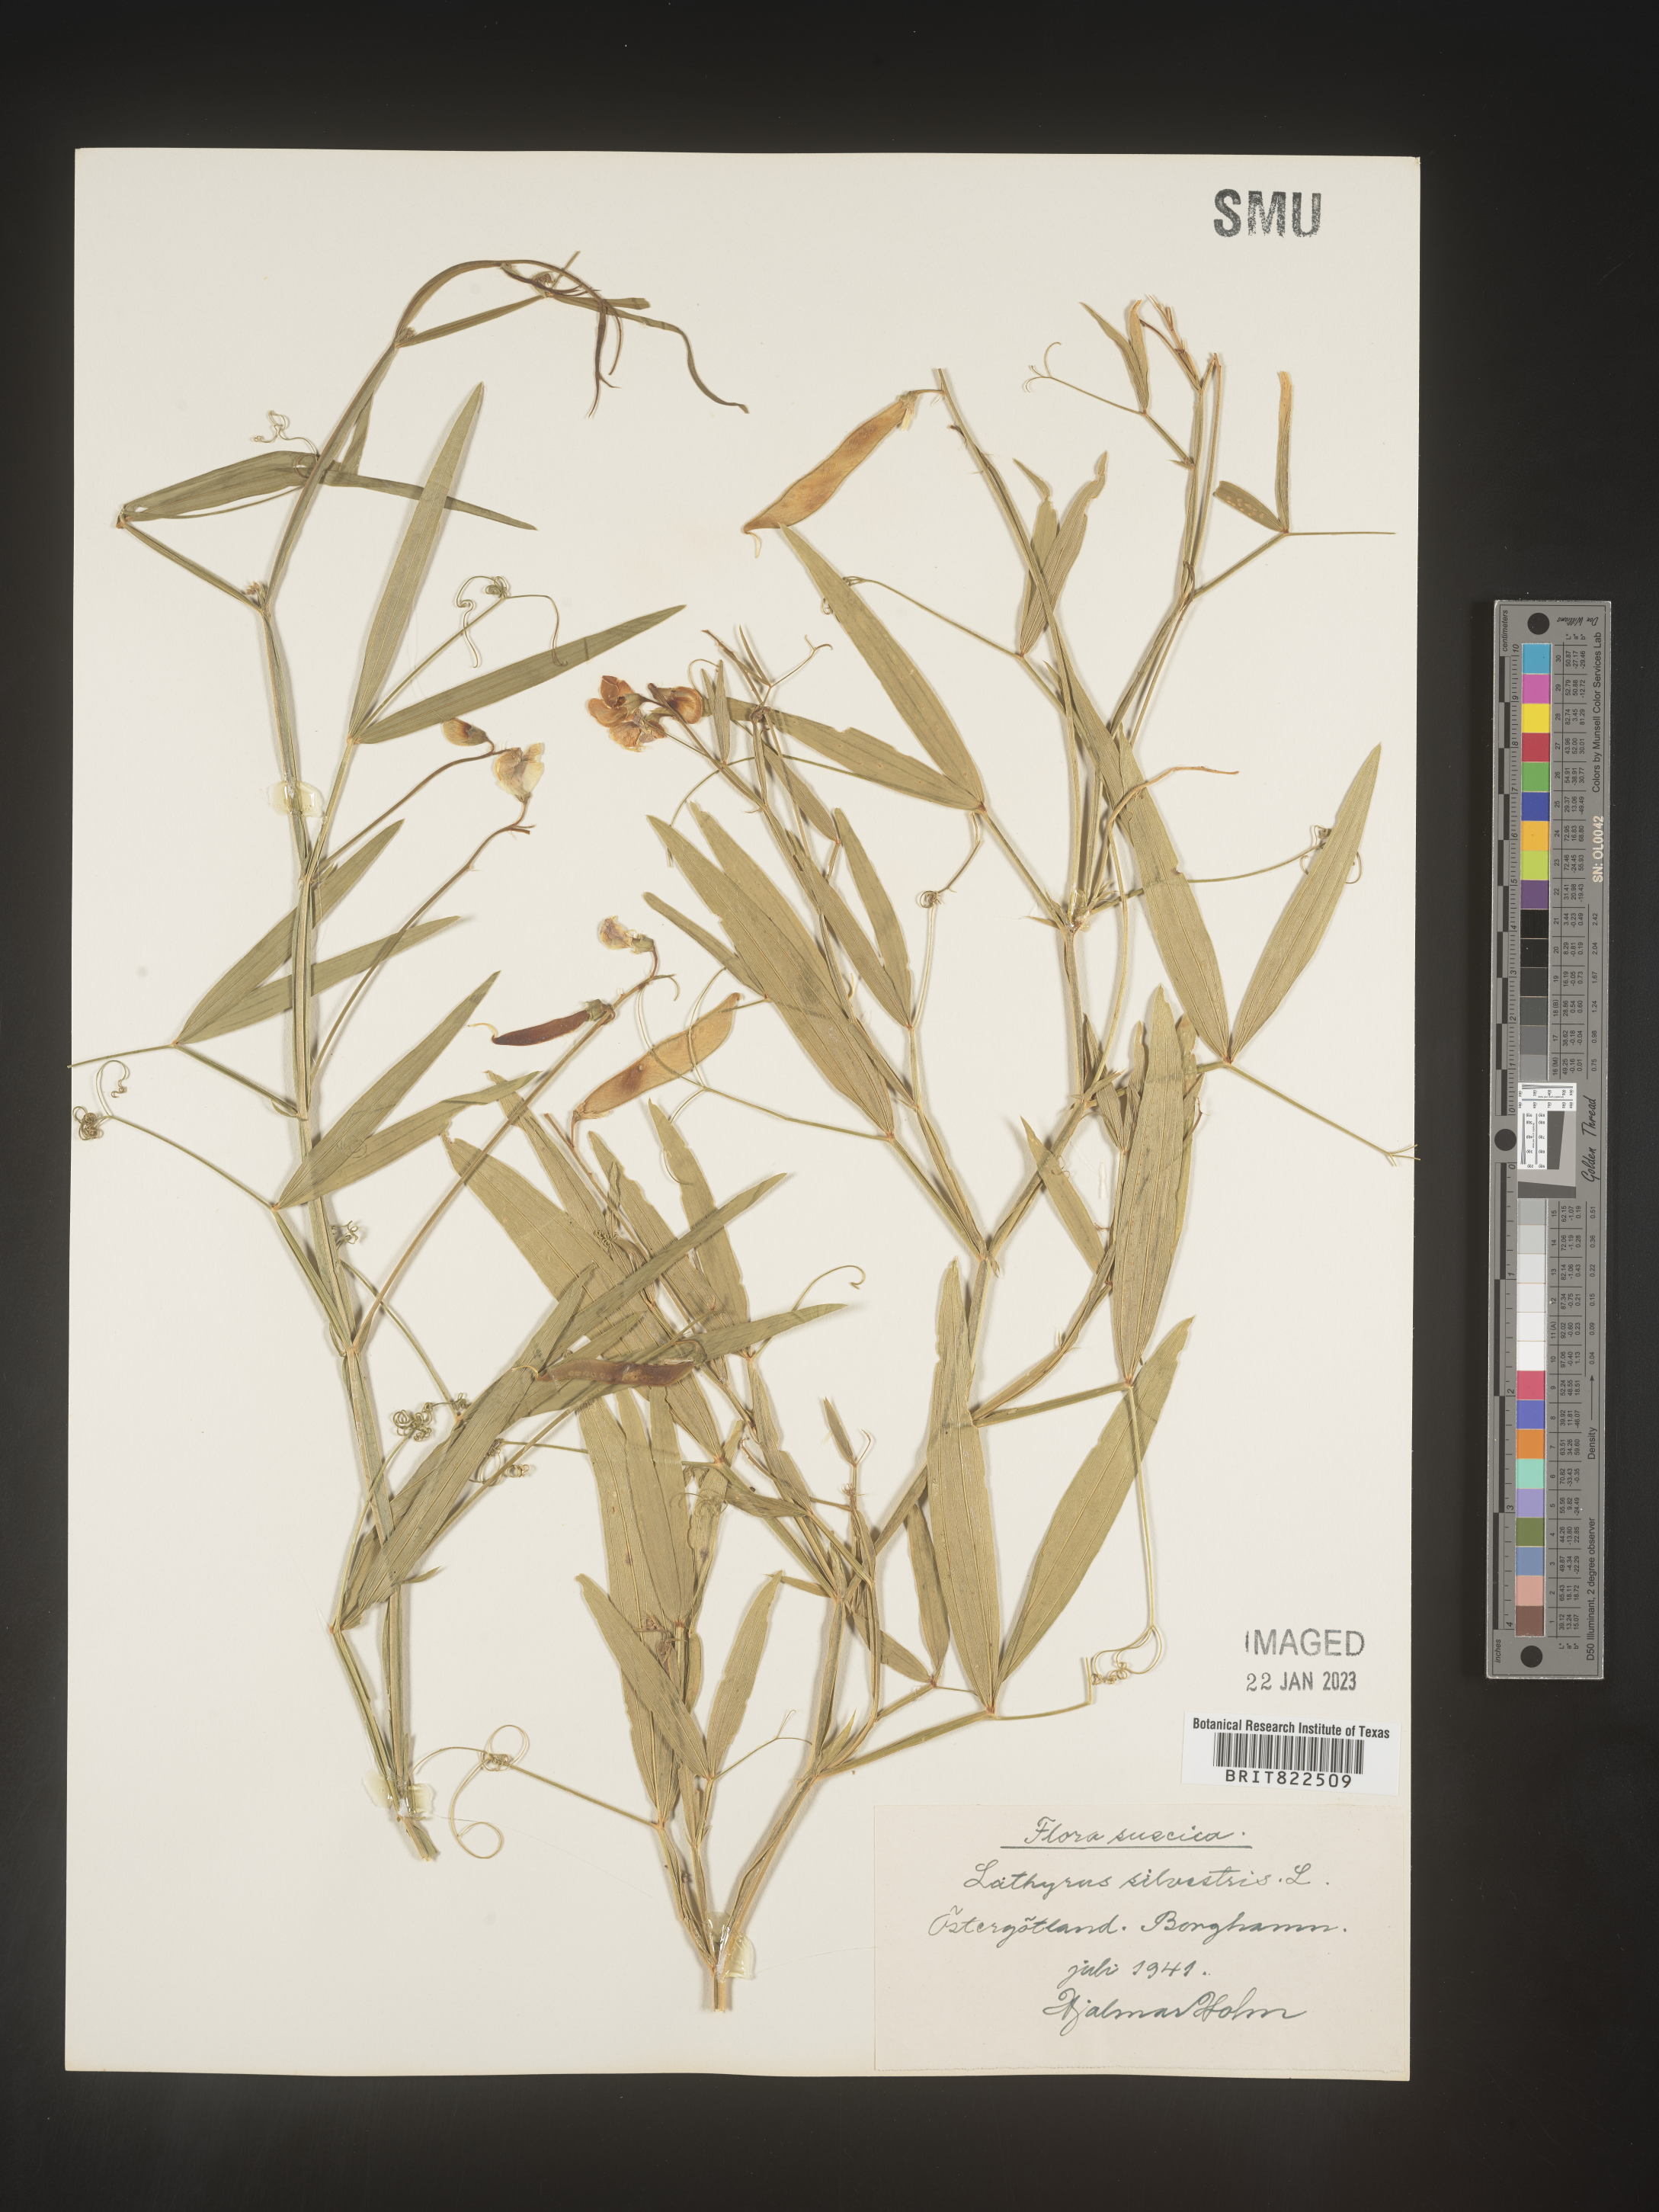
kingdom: Plantae
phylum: Tracheophyta
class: Magnoliopsida
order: Fabales
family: Fabaceae
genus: Lathyrus
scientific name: Lathyrus
